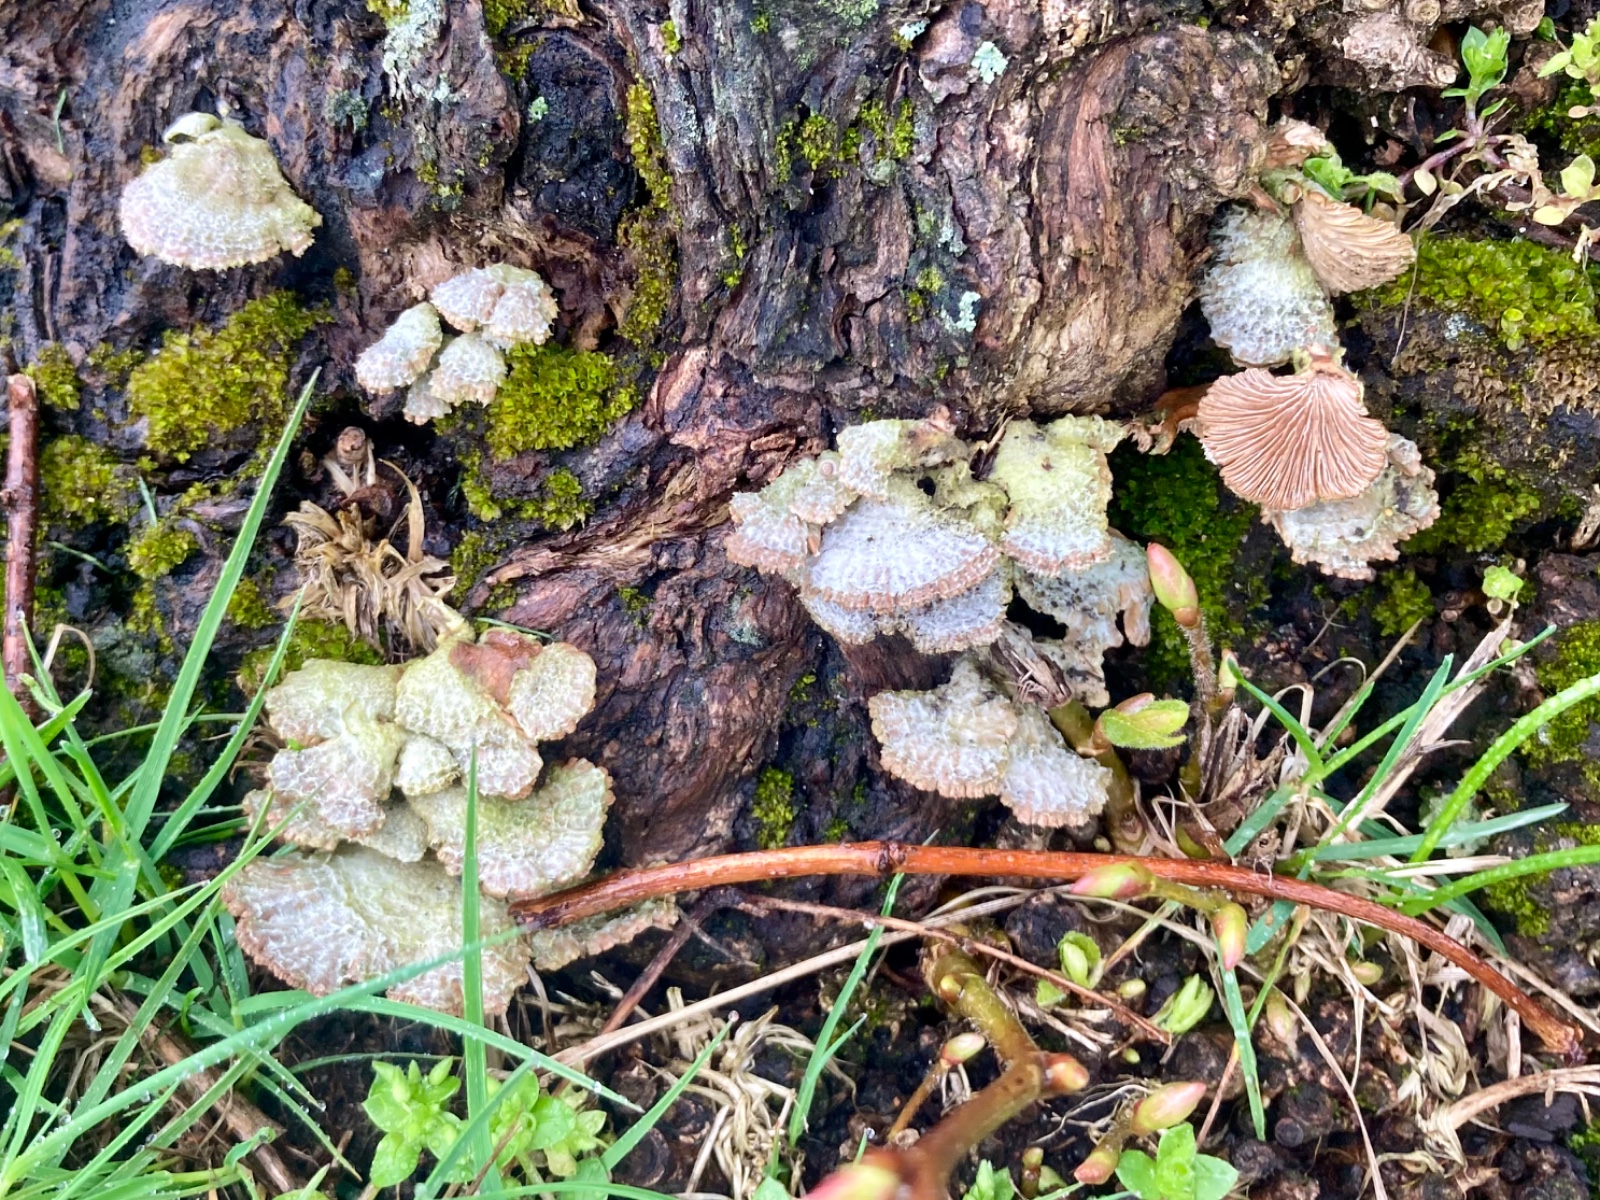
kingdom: Fungi
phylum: Basidiomycota
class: Agaricomycetes
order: Agaricales
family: Schizophyllaceae
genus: Schizophyllum
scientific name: Schizophyllum commune
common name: kløvblad
